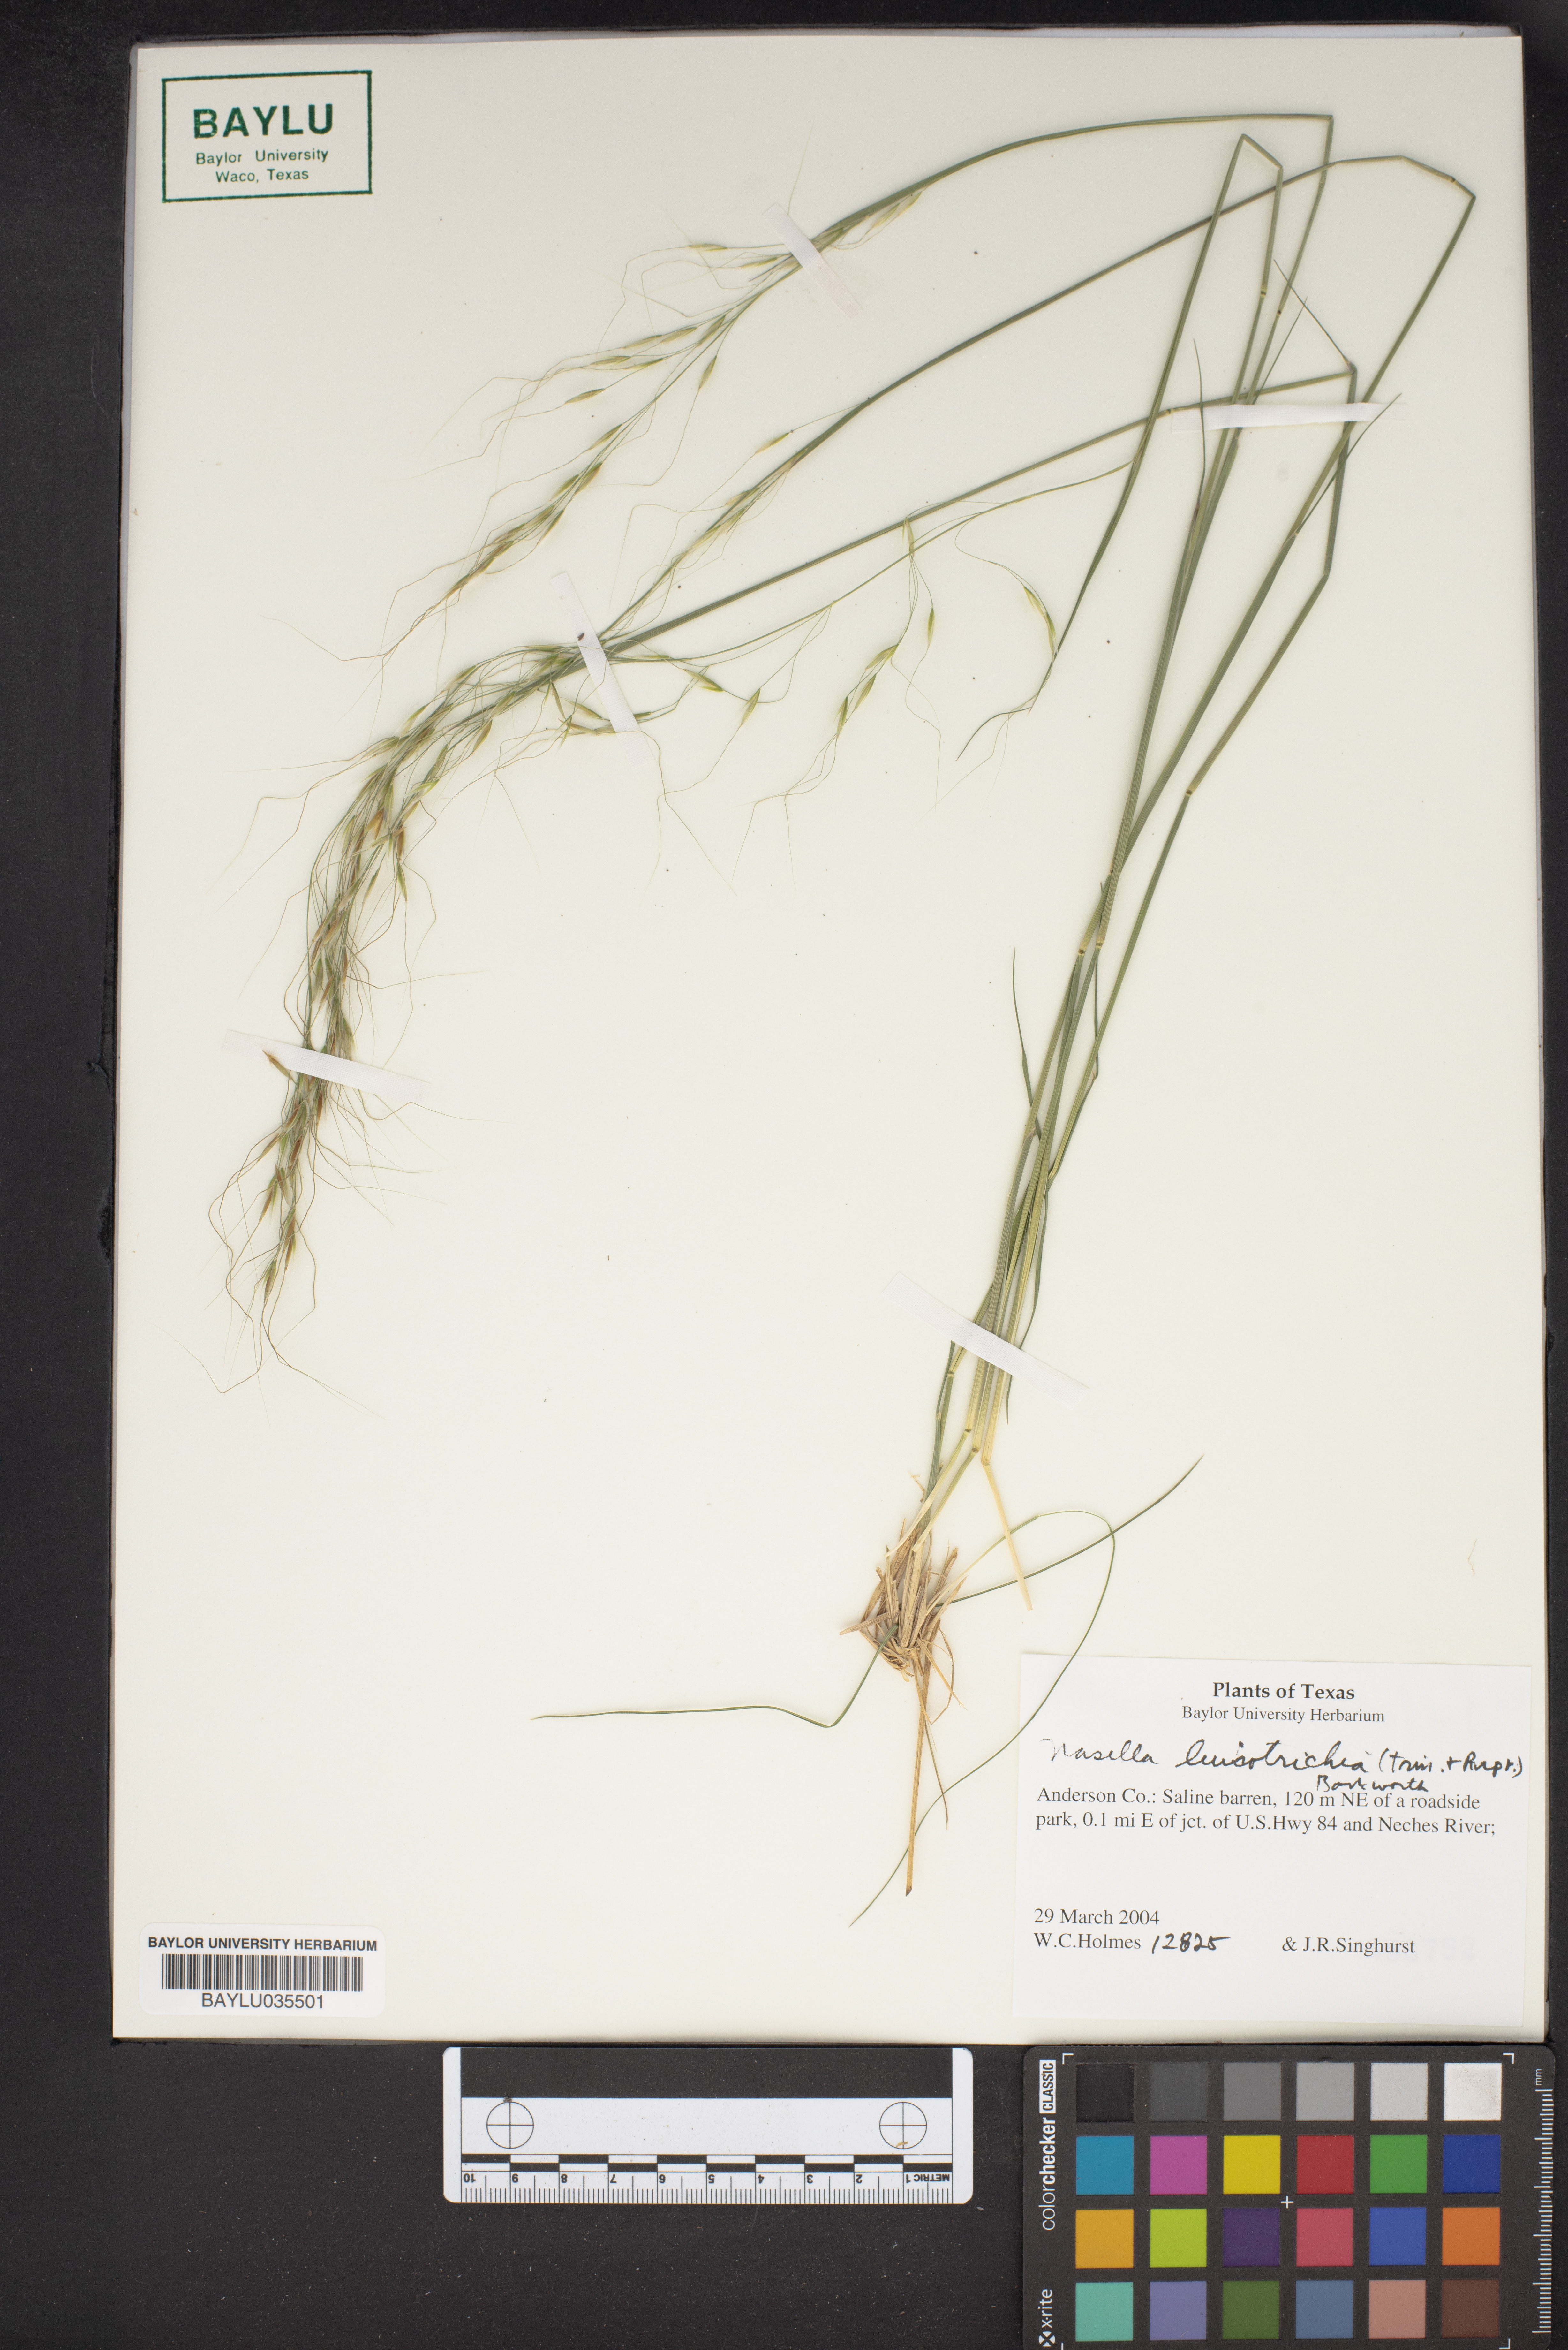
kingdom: Plantae
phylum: Tracheophyta
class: Liliopsida
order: Poales
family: Poaceae
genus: Nassella
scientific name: Nassella leucotricha
